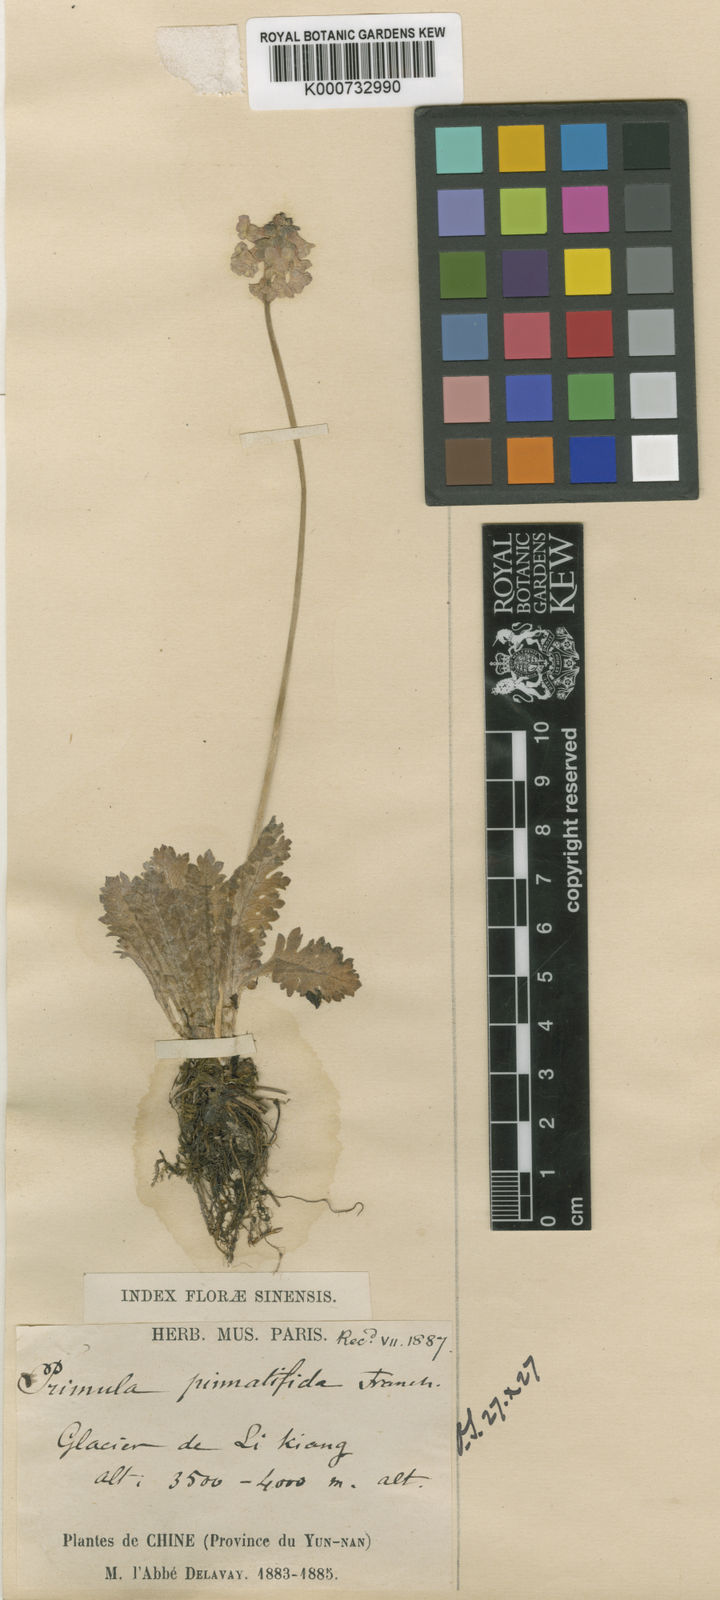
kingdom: Plantae
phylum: Tracheophyta
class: Magnoliopsida
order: Ericales
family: Primulaceae
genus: Primula
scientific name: Primula pinnatifida
